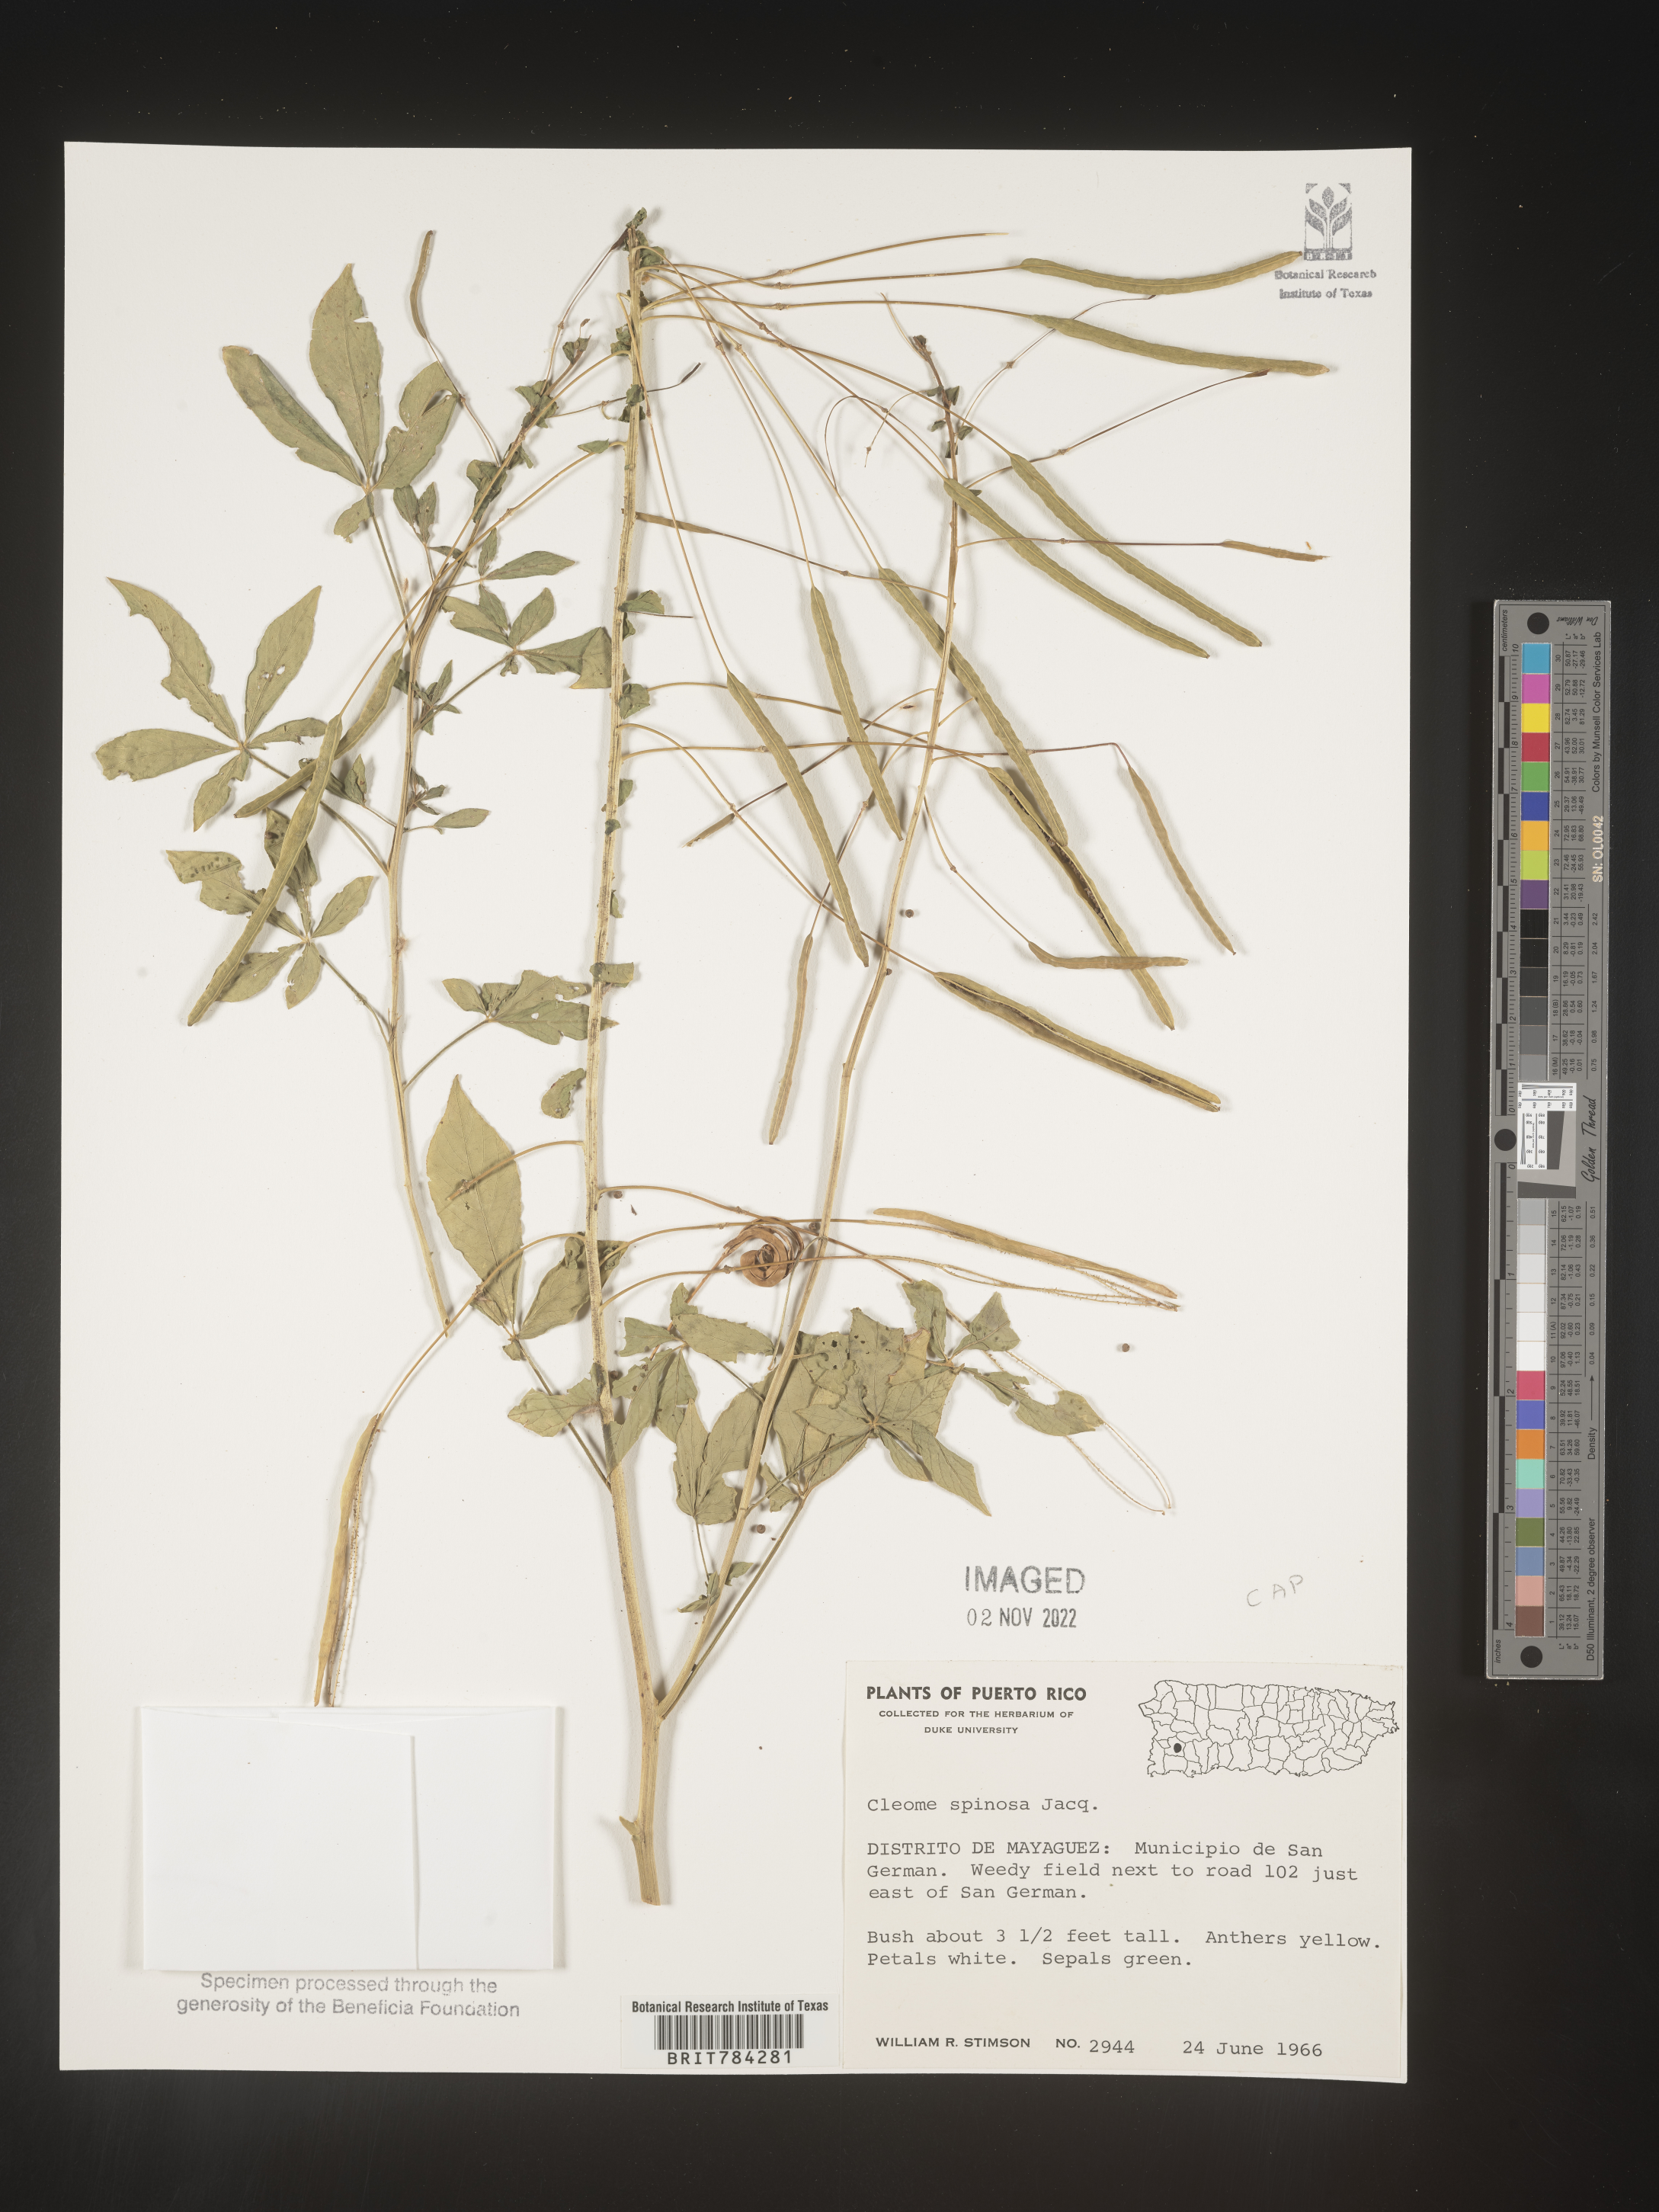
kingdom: Plantae
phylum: Tracheophyta
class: Magnoliopsida
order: Brassicales
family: Cleomaceae
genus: Cleome
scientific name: Cleome
